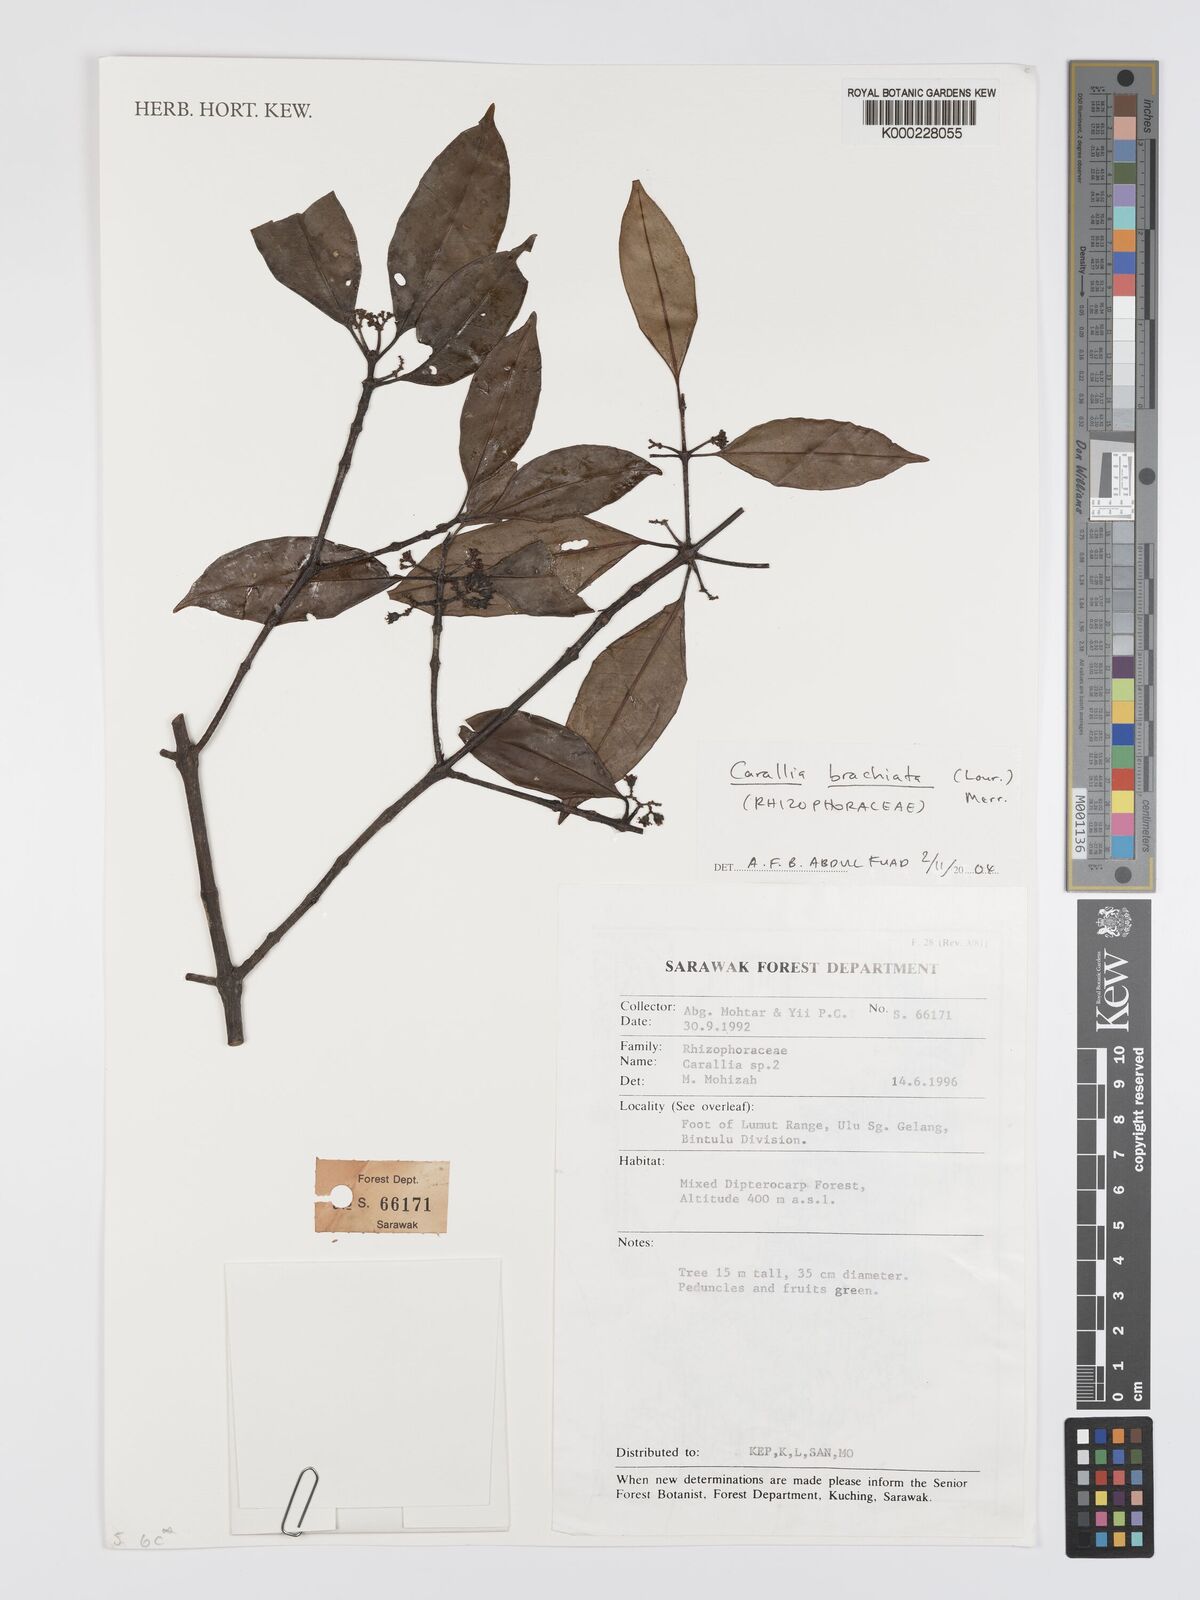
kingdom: Plantae
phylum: Tracheophyta
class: Magnoliopsida
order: Malpighiales
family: Rhizophoraceae
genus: Carallia
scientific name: Carallia brachiata
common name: Carallawood
